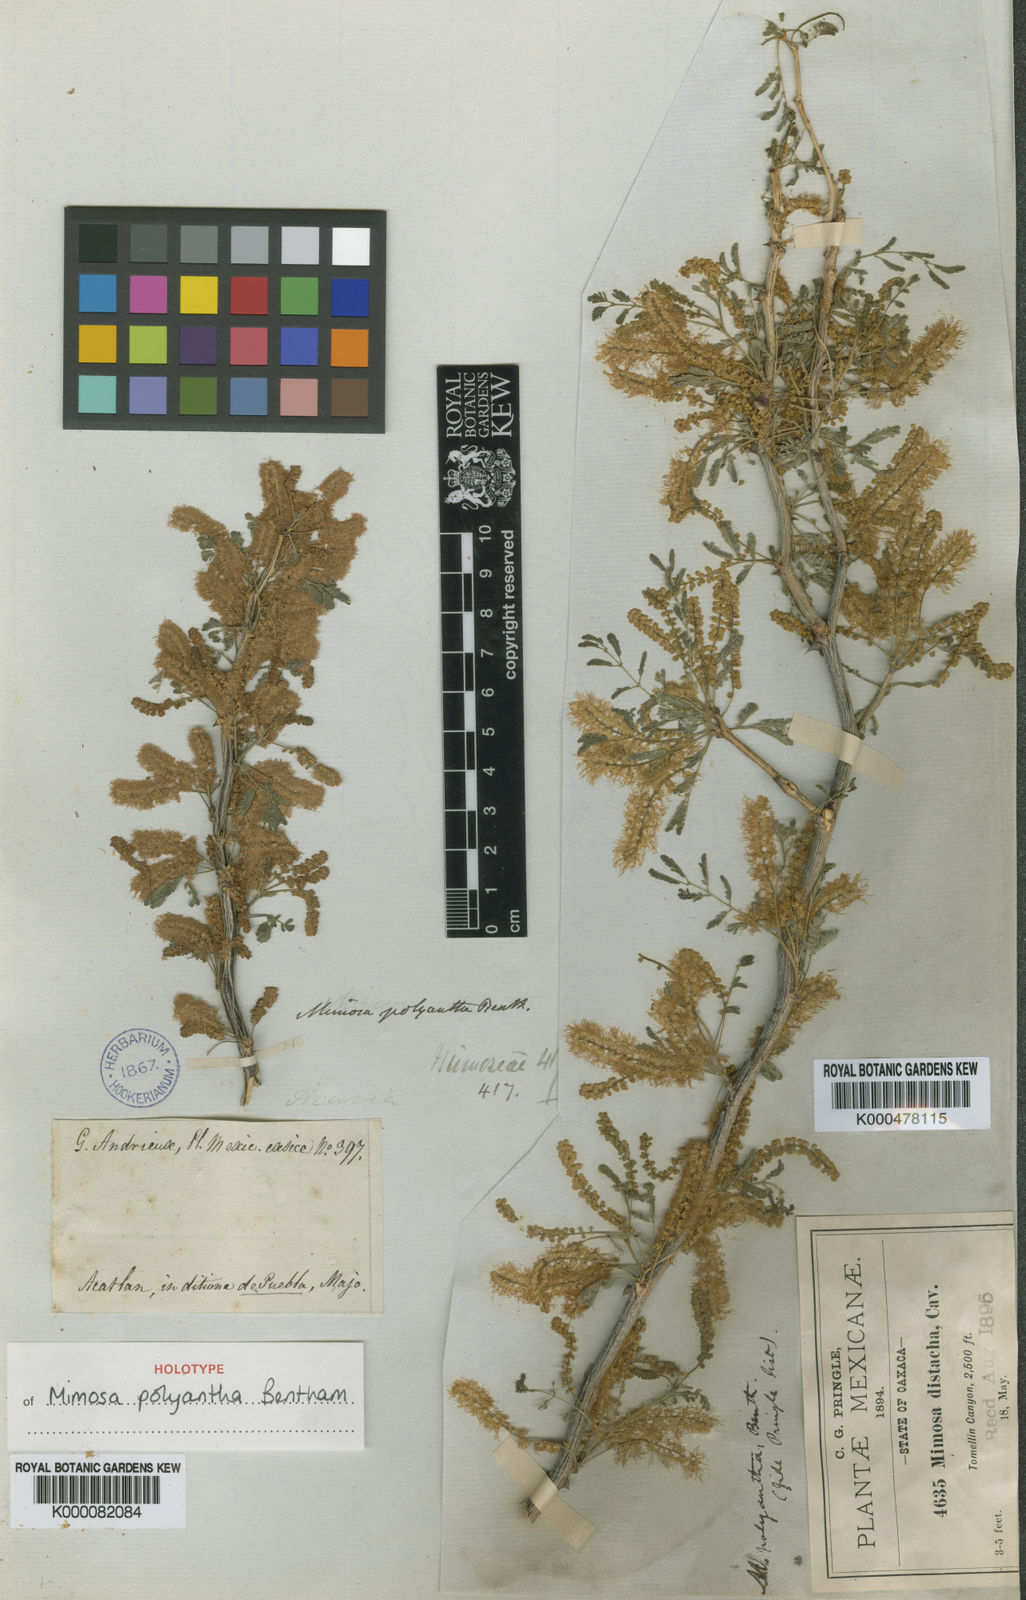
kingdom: Plantae
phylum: Tracheophyta
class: Magnoliopsida
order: Fabales
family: Fabaceae
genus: Mimosa
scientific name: Mimosa polyantha
